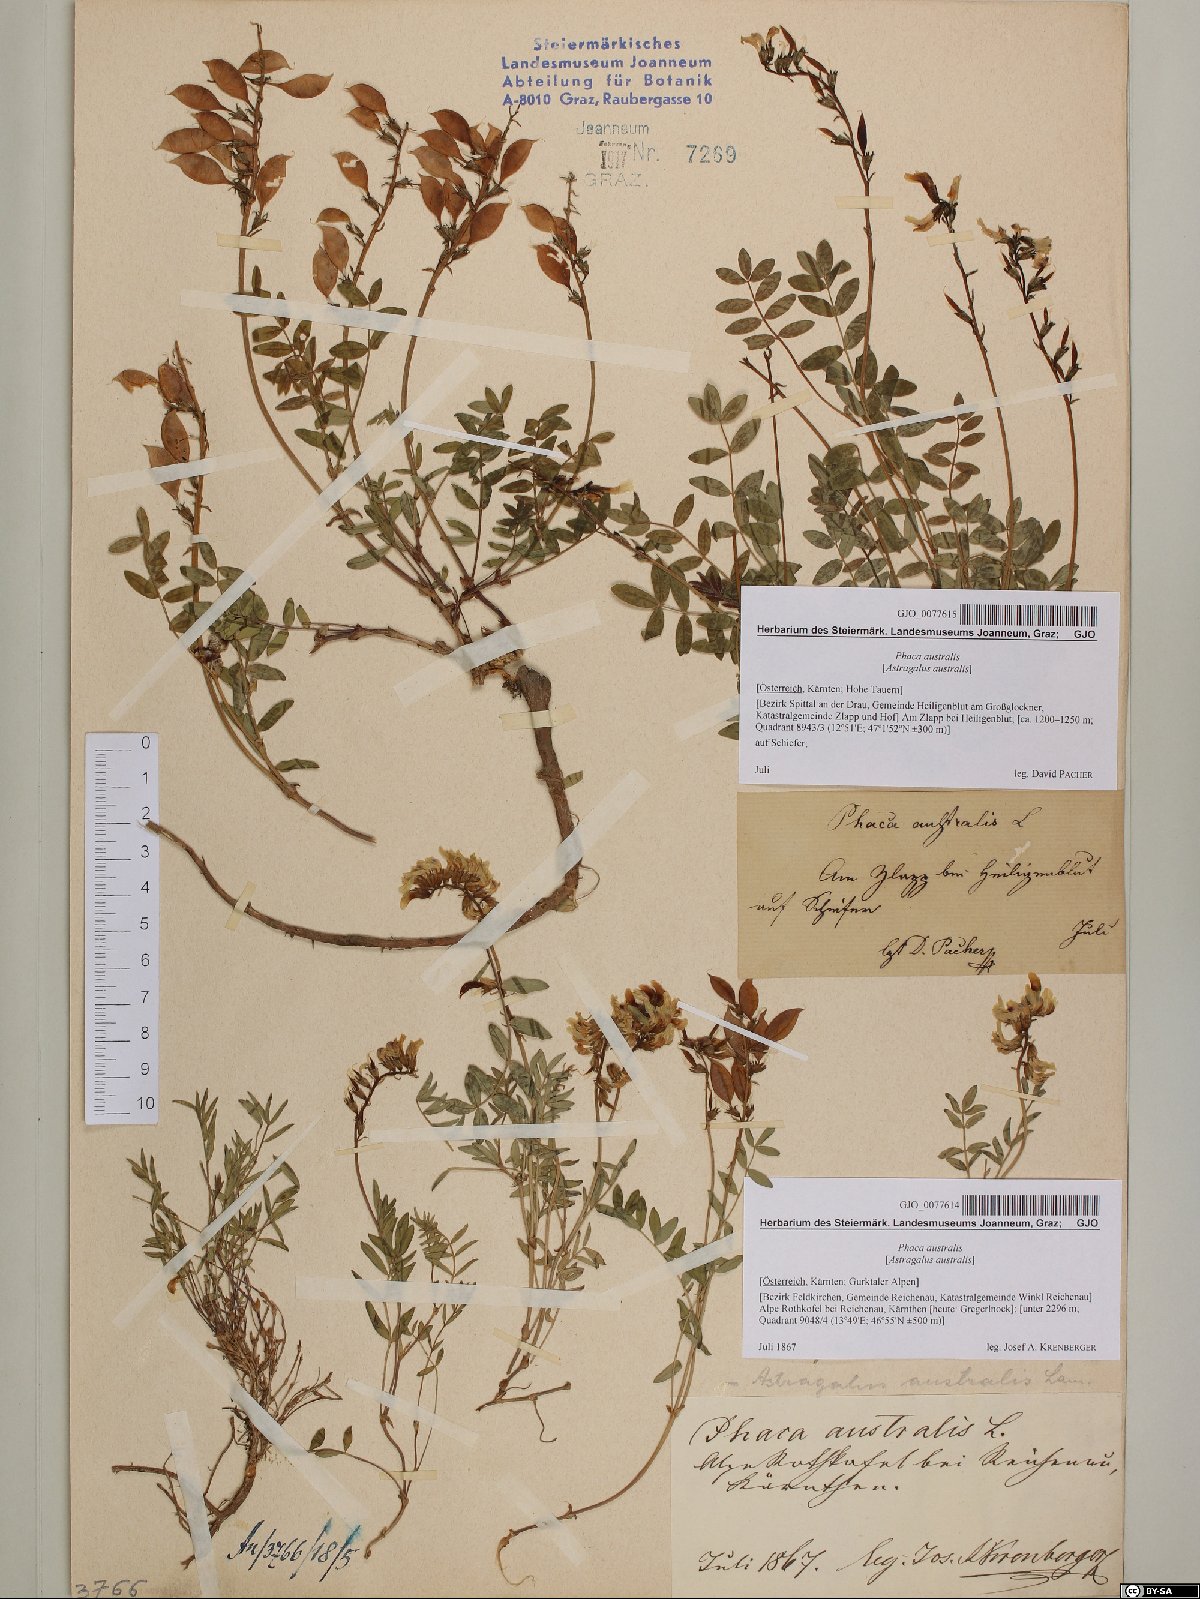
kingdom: Plantae
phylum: Tracheophyta
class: Magnoliopsida
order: Fabales
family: Fabaceae
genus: Astragalus
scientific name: Astragalus australis
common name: Indian milk-vetch
